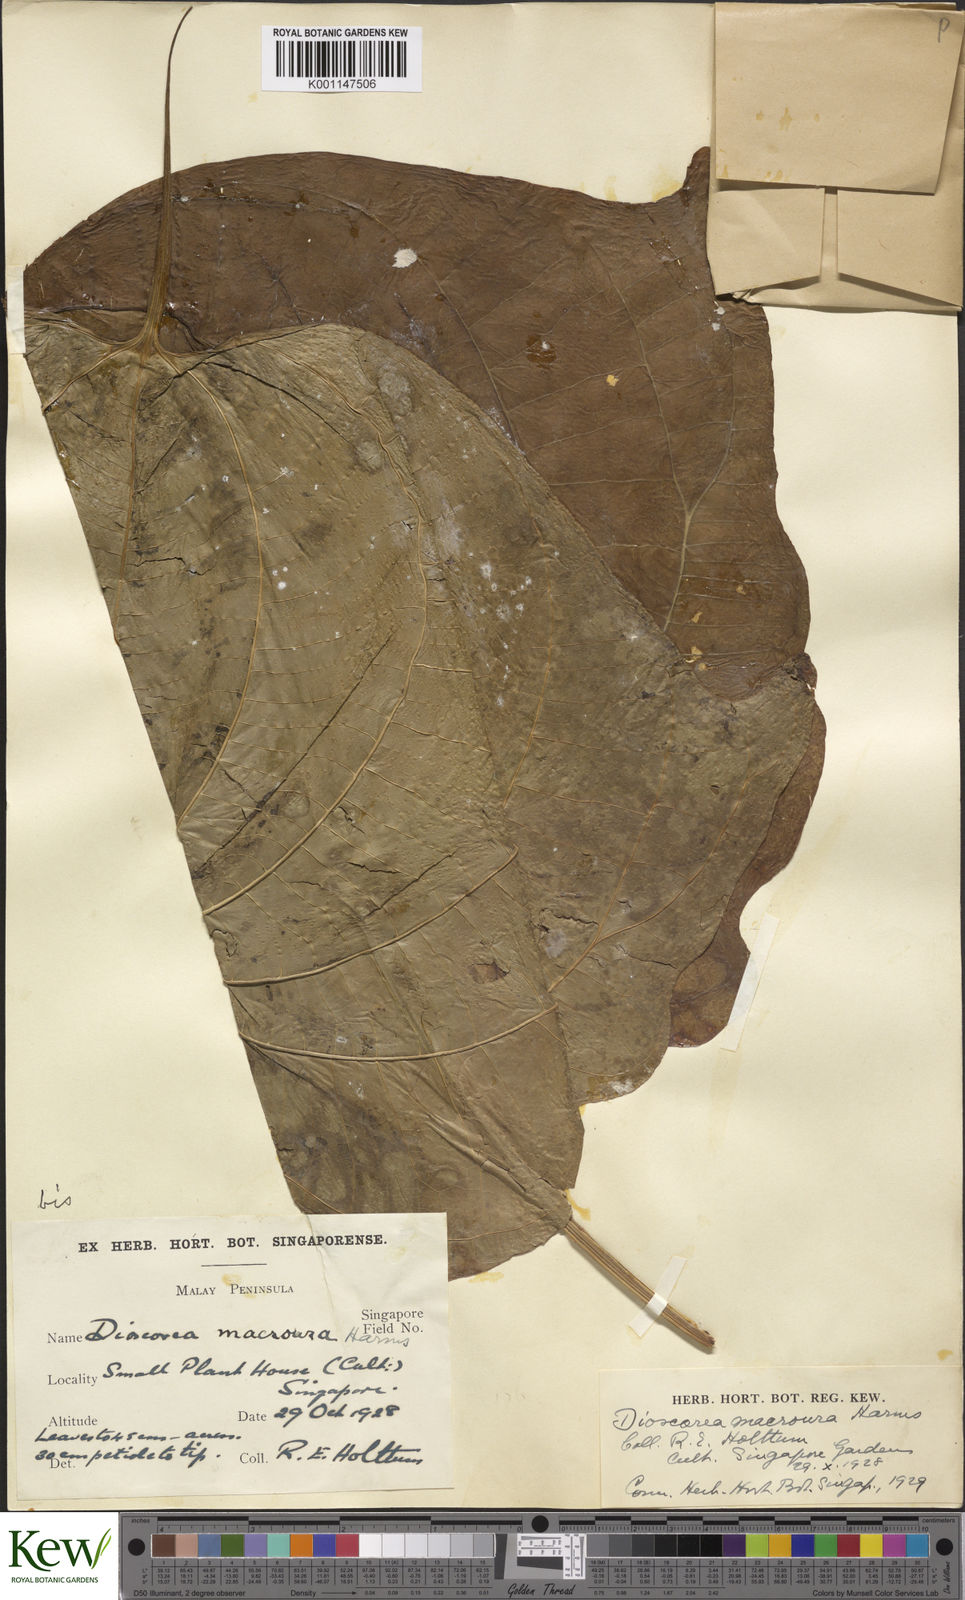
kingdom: Plantae
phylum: Tracheophyta
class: Liliopsida
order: Dioscoreales
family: Dioscoreaceae
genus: Dioscorea
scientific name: Dioscorea sansibarensis
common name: Zanzibar yam
